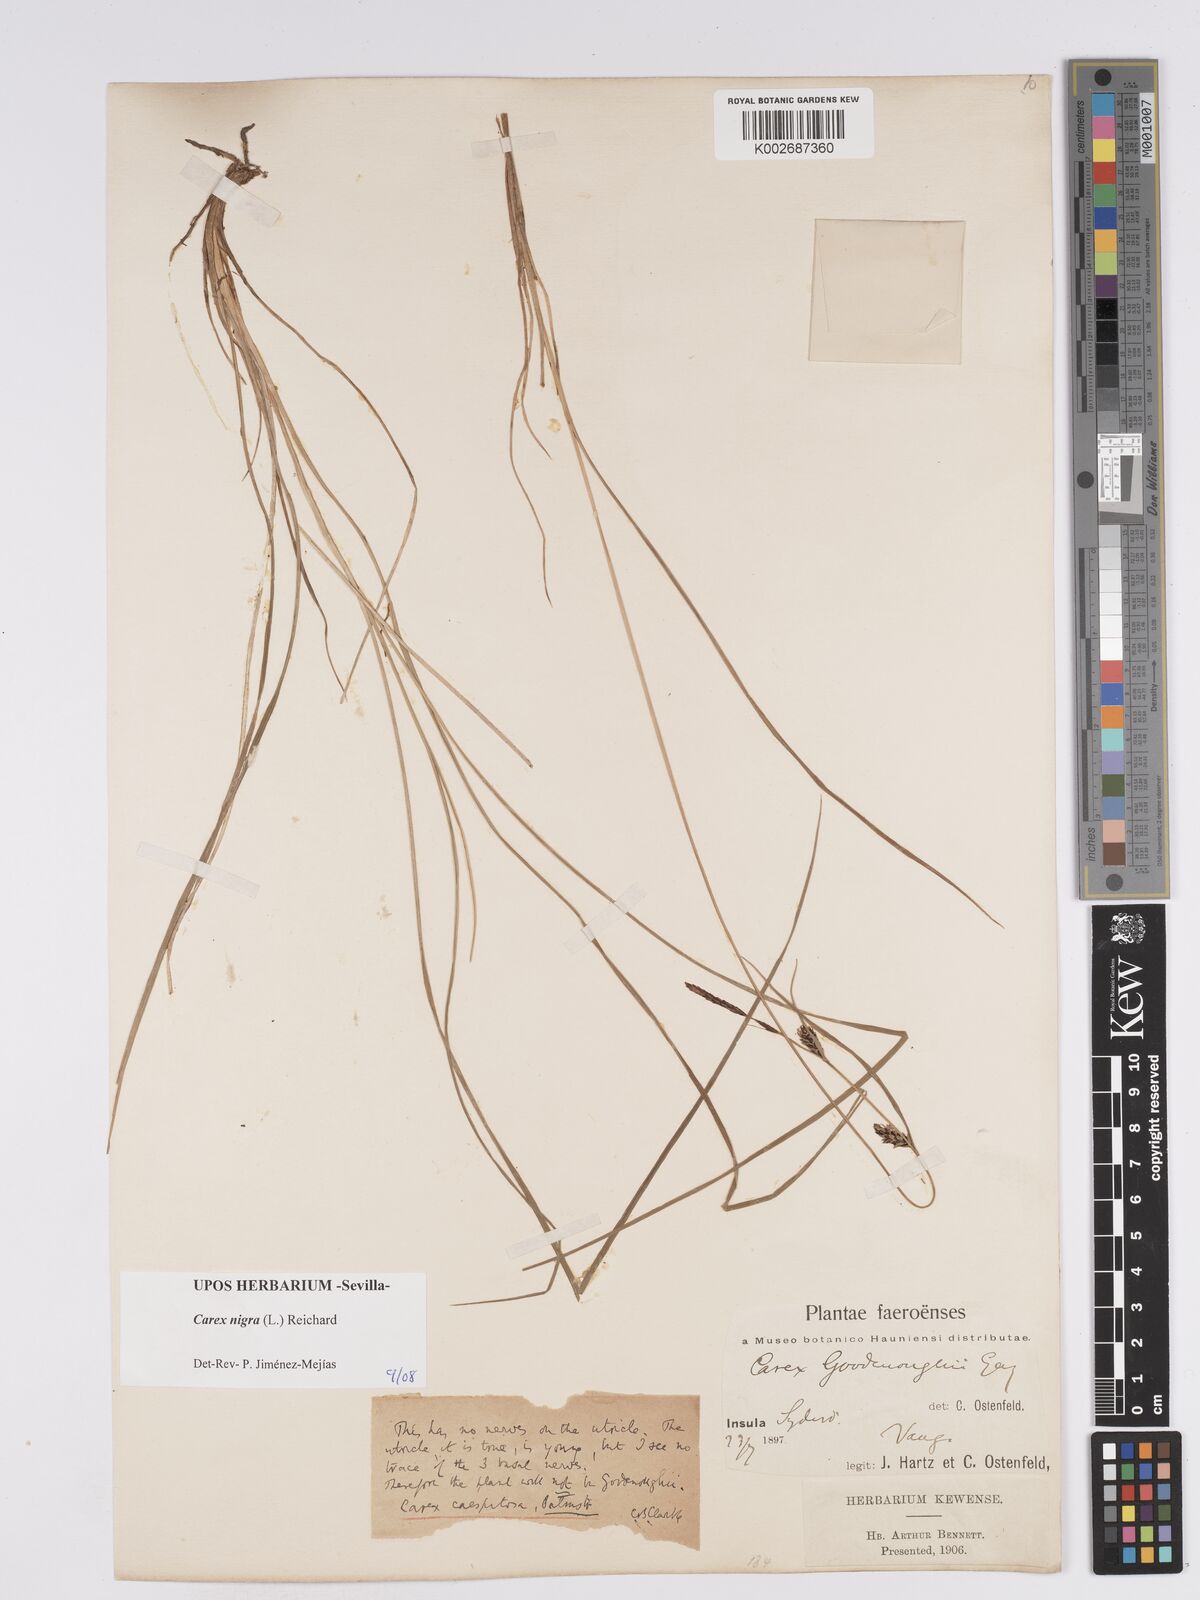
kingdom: Plantae
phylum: Tracheophyta
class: Liliopsida
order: Poales
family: Cyperaceae
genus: Carex
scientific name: Carex nigra
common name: Common sedge
